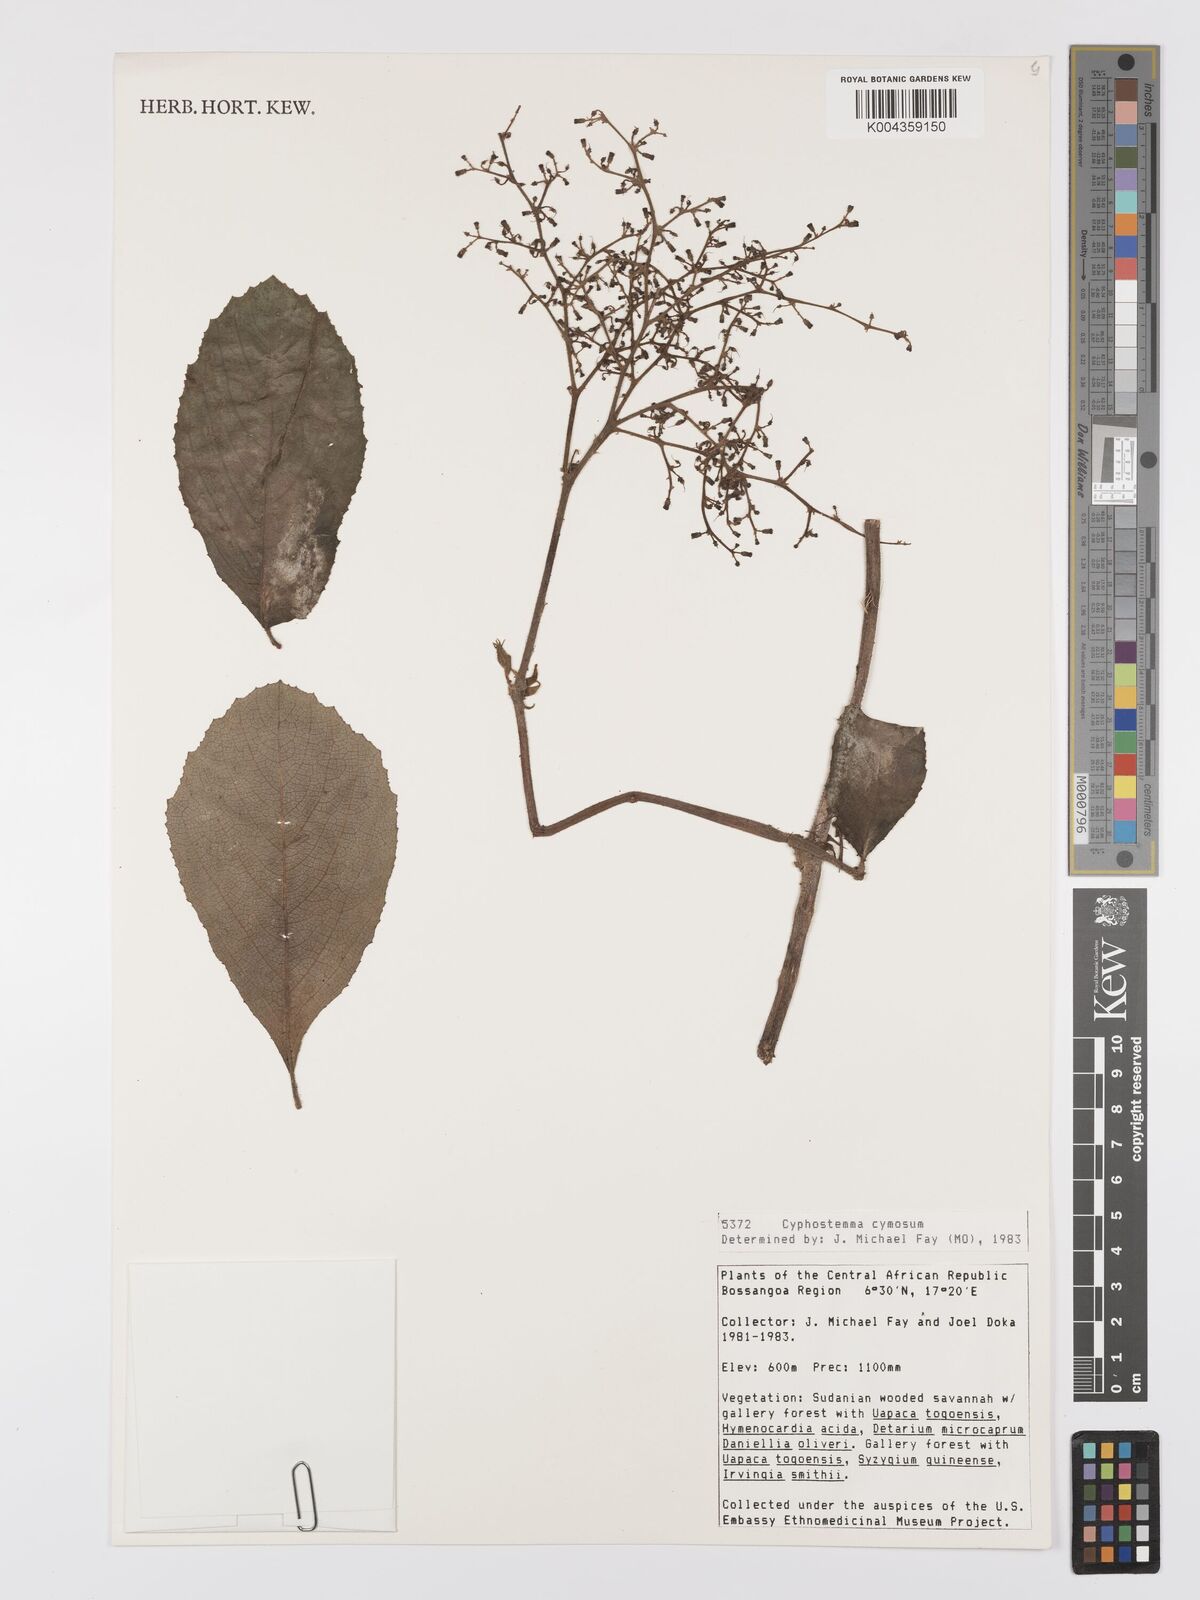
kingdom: Plantae
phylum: Tracheophyta
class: Magnoliopsida
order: Vitales
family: Vitaceae
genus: Cyphostemma
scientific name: Cyphostemma cymosum
